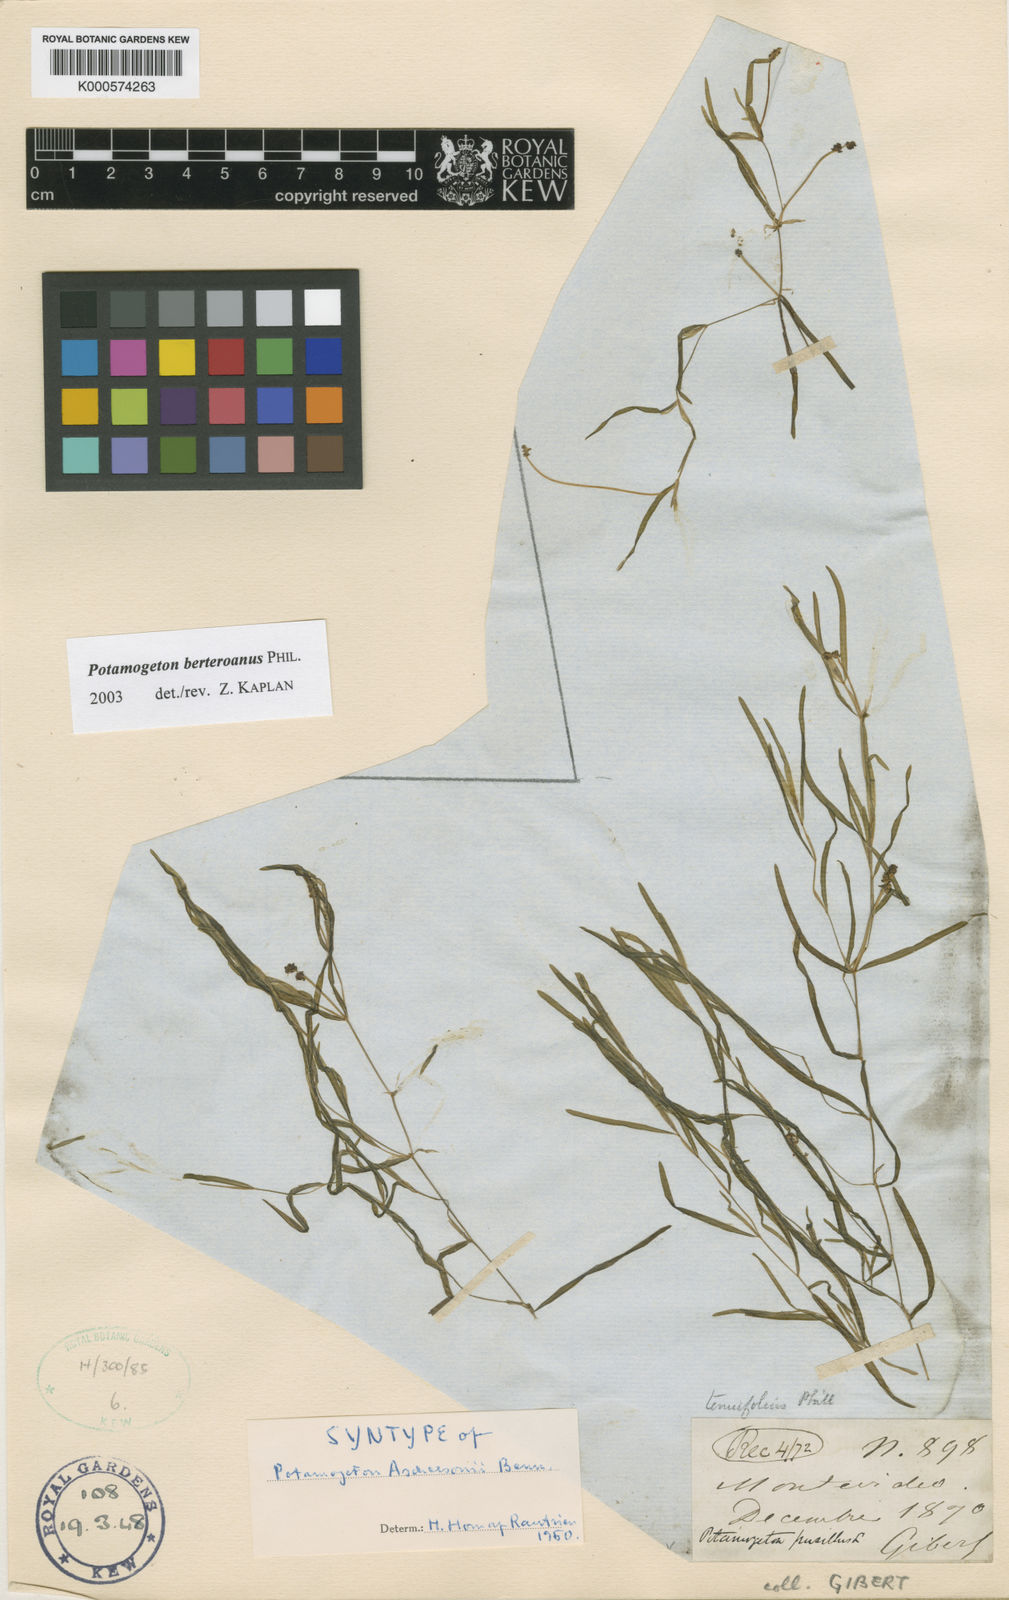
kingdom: Plantae
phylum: Tracheophyta
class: Liliopsida
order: Alismatales
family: Potamogetonaceae
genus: Potamogeton
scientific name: Potamogeton pusillus
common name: Lesser pondweed
